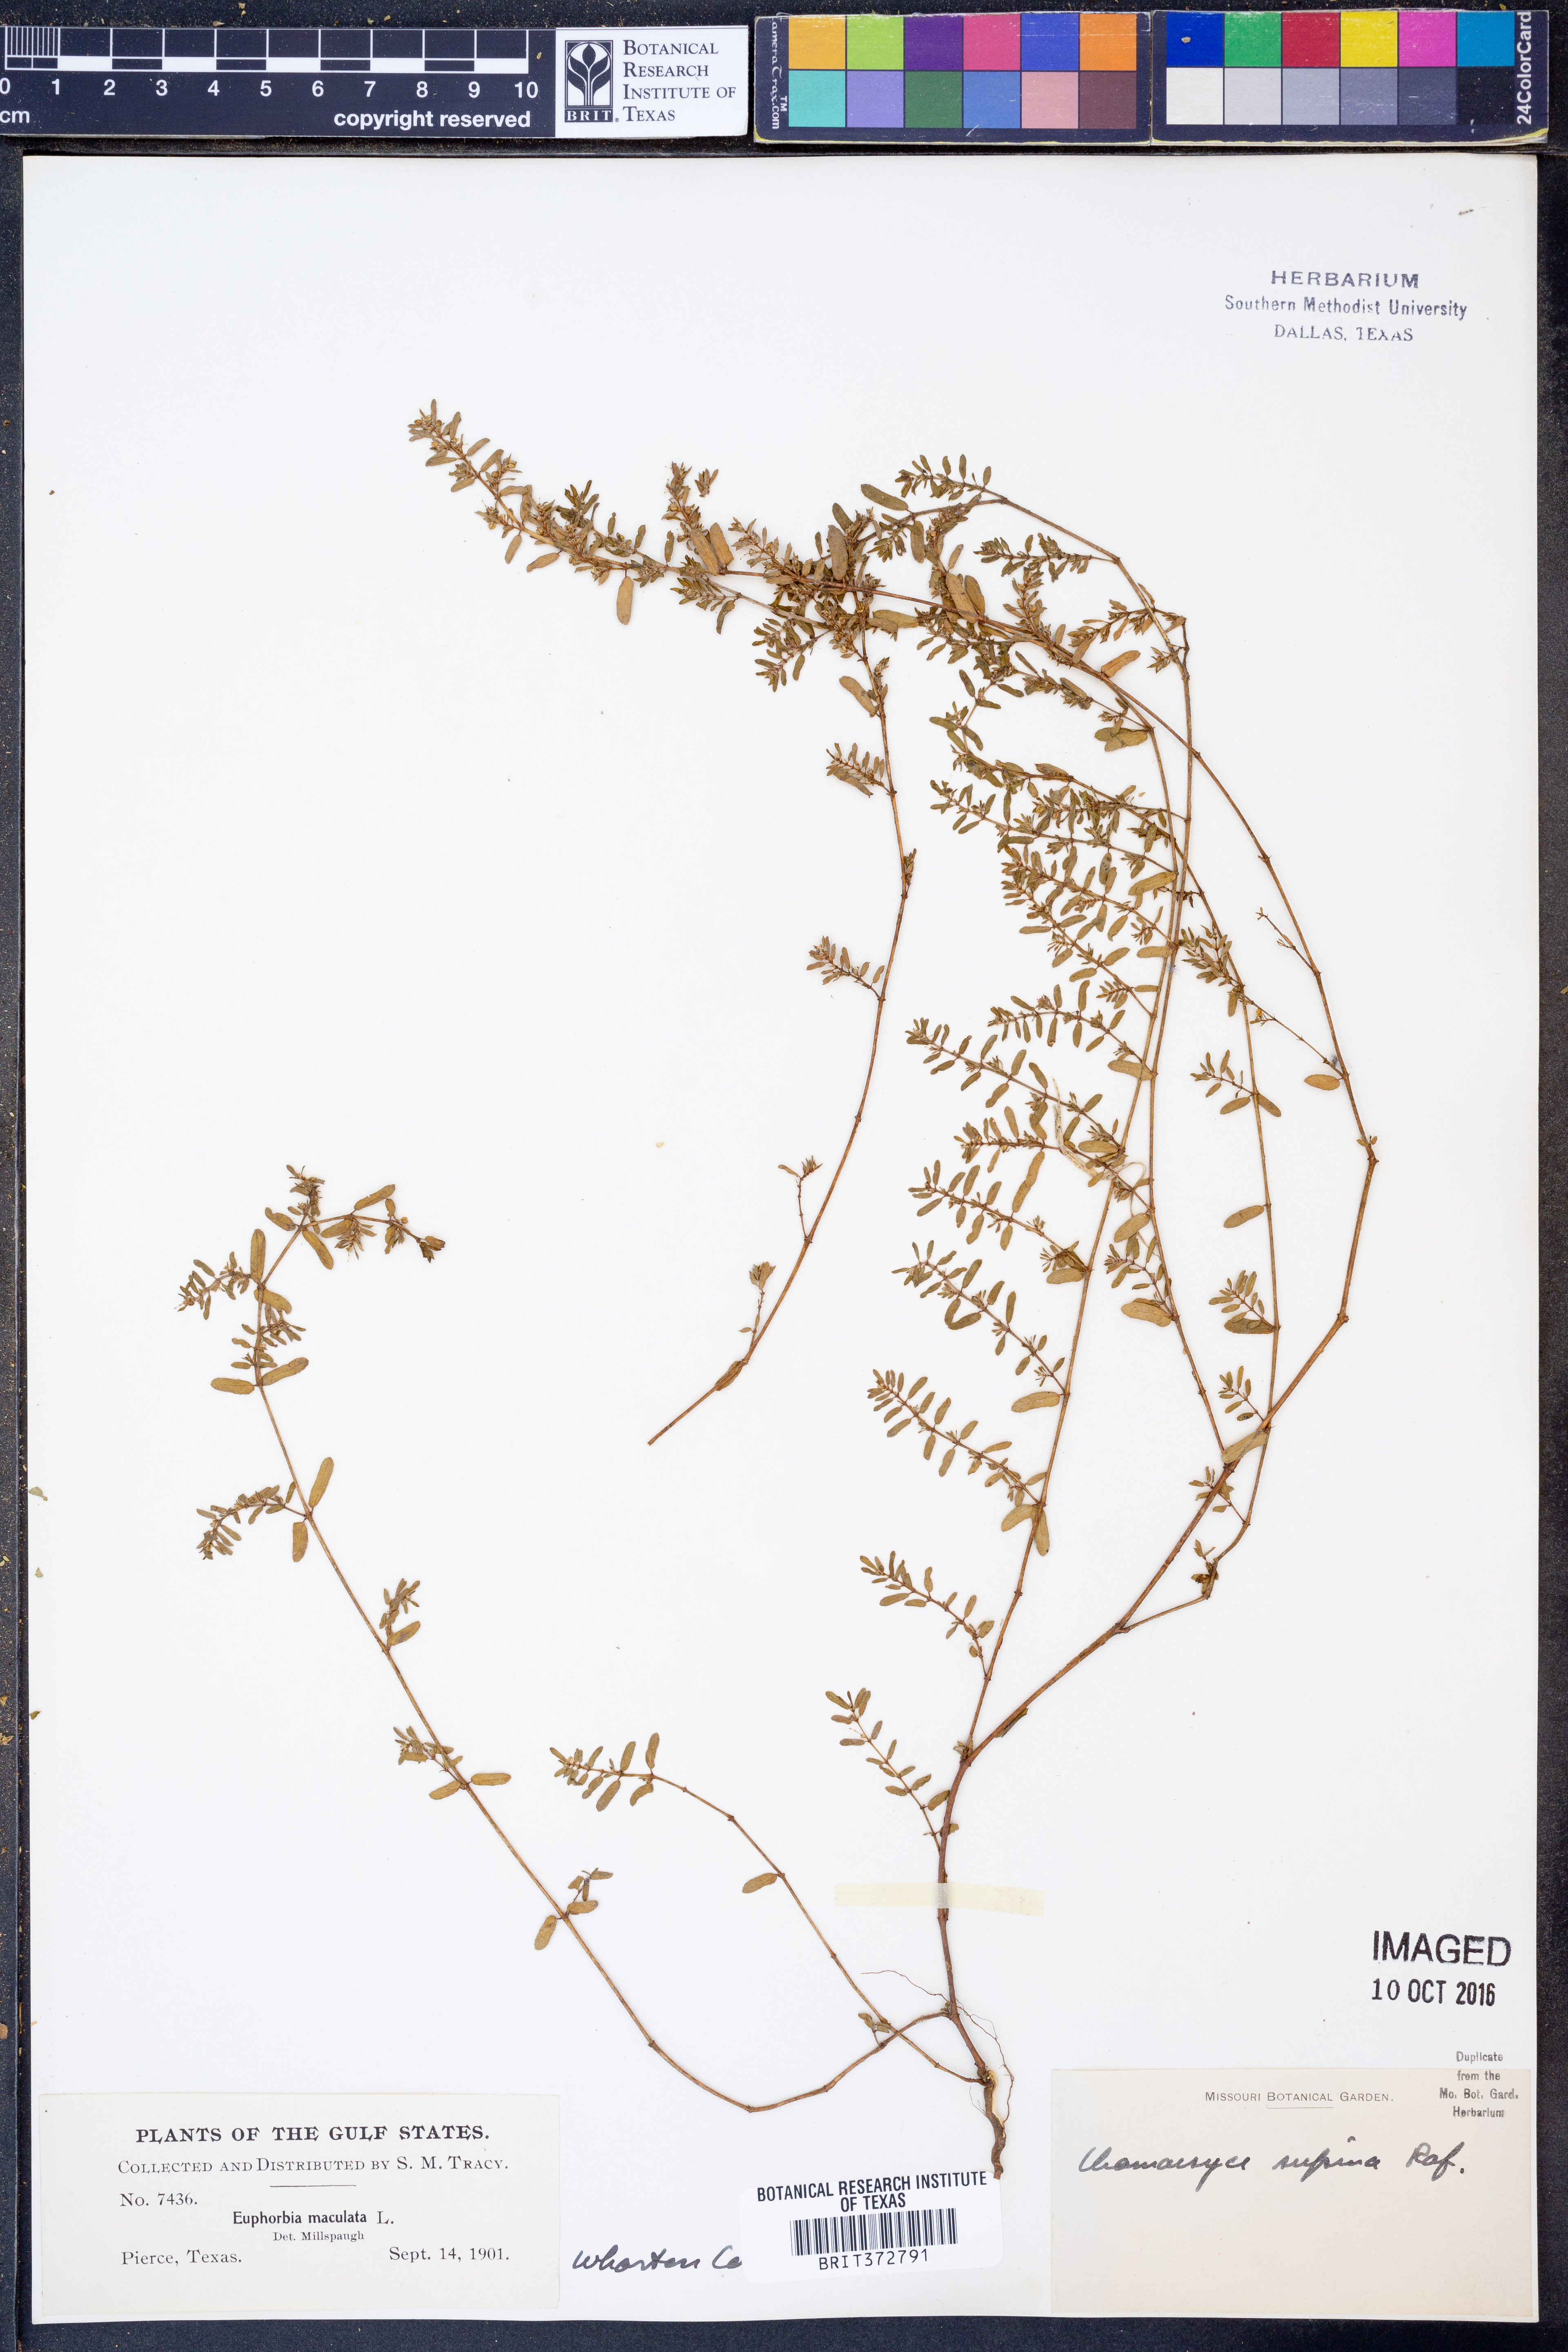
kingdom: Plantae
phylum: Tracheophyta
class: Magnoliopsida
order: Malpighiales
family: Euphorbiaceae
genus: Euphorbia
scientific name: Euphorbia maculata
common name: Spotted spurge
